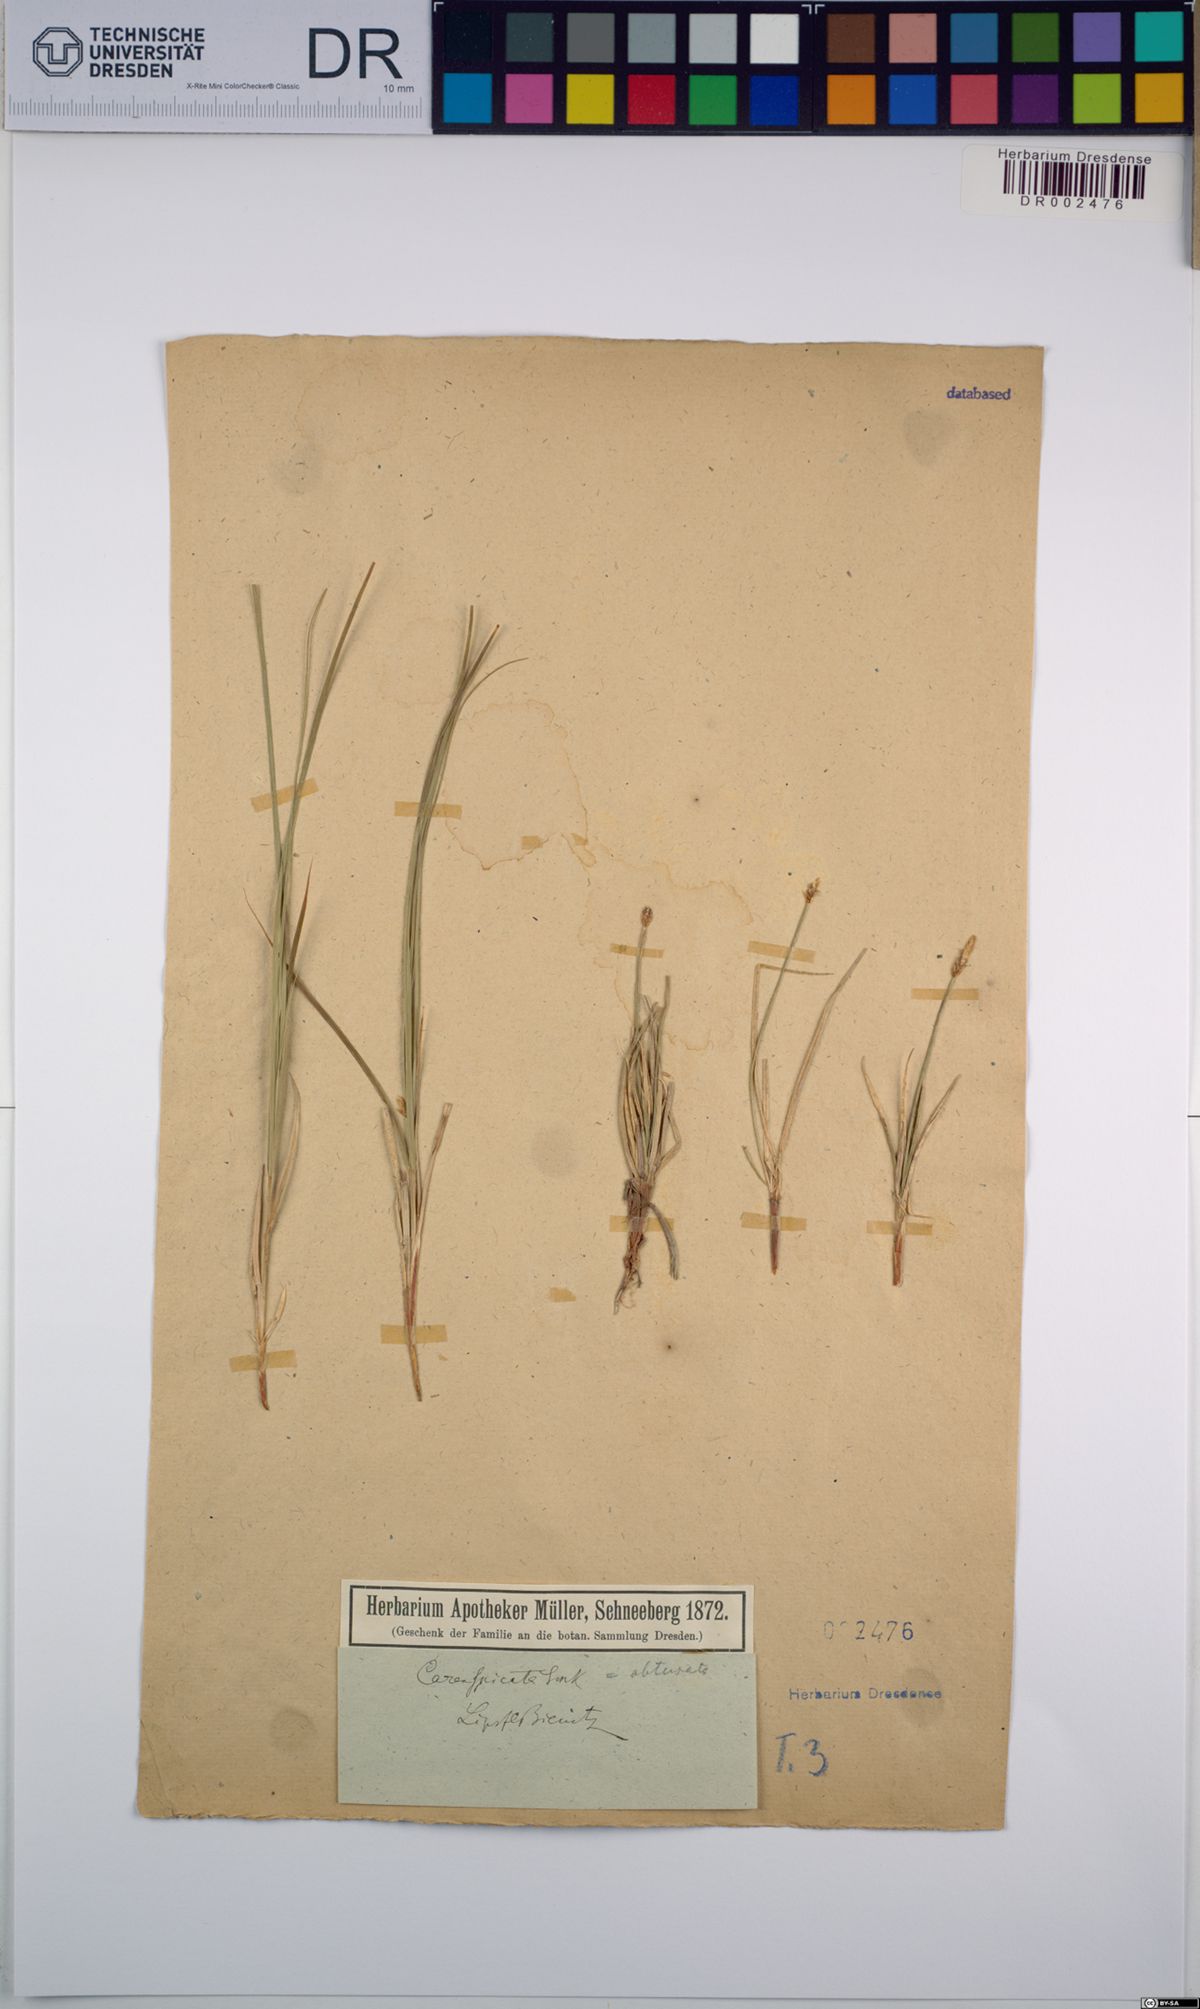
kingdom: Plantae
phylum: Tracheophyta
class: Liliopsida
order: Poales
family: Cyperaceae
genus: Carex
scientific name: Carex obtusata
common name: Blunt sedge
